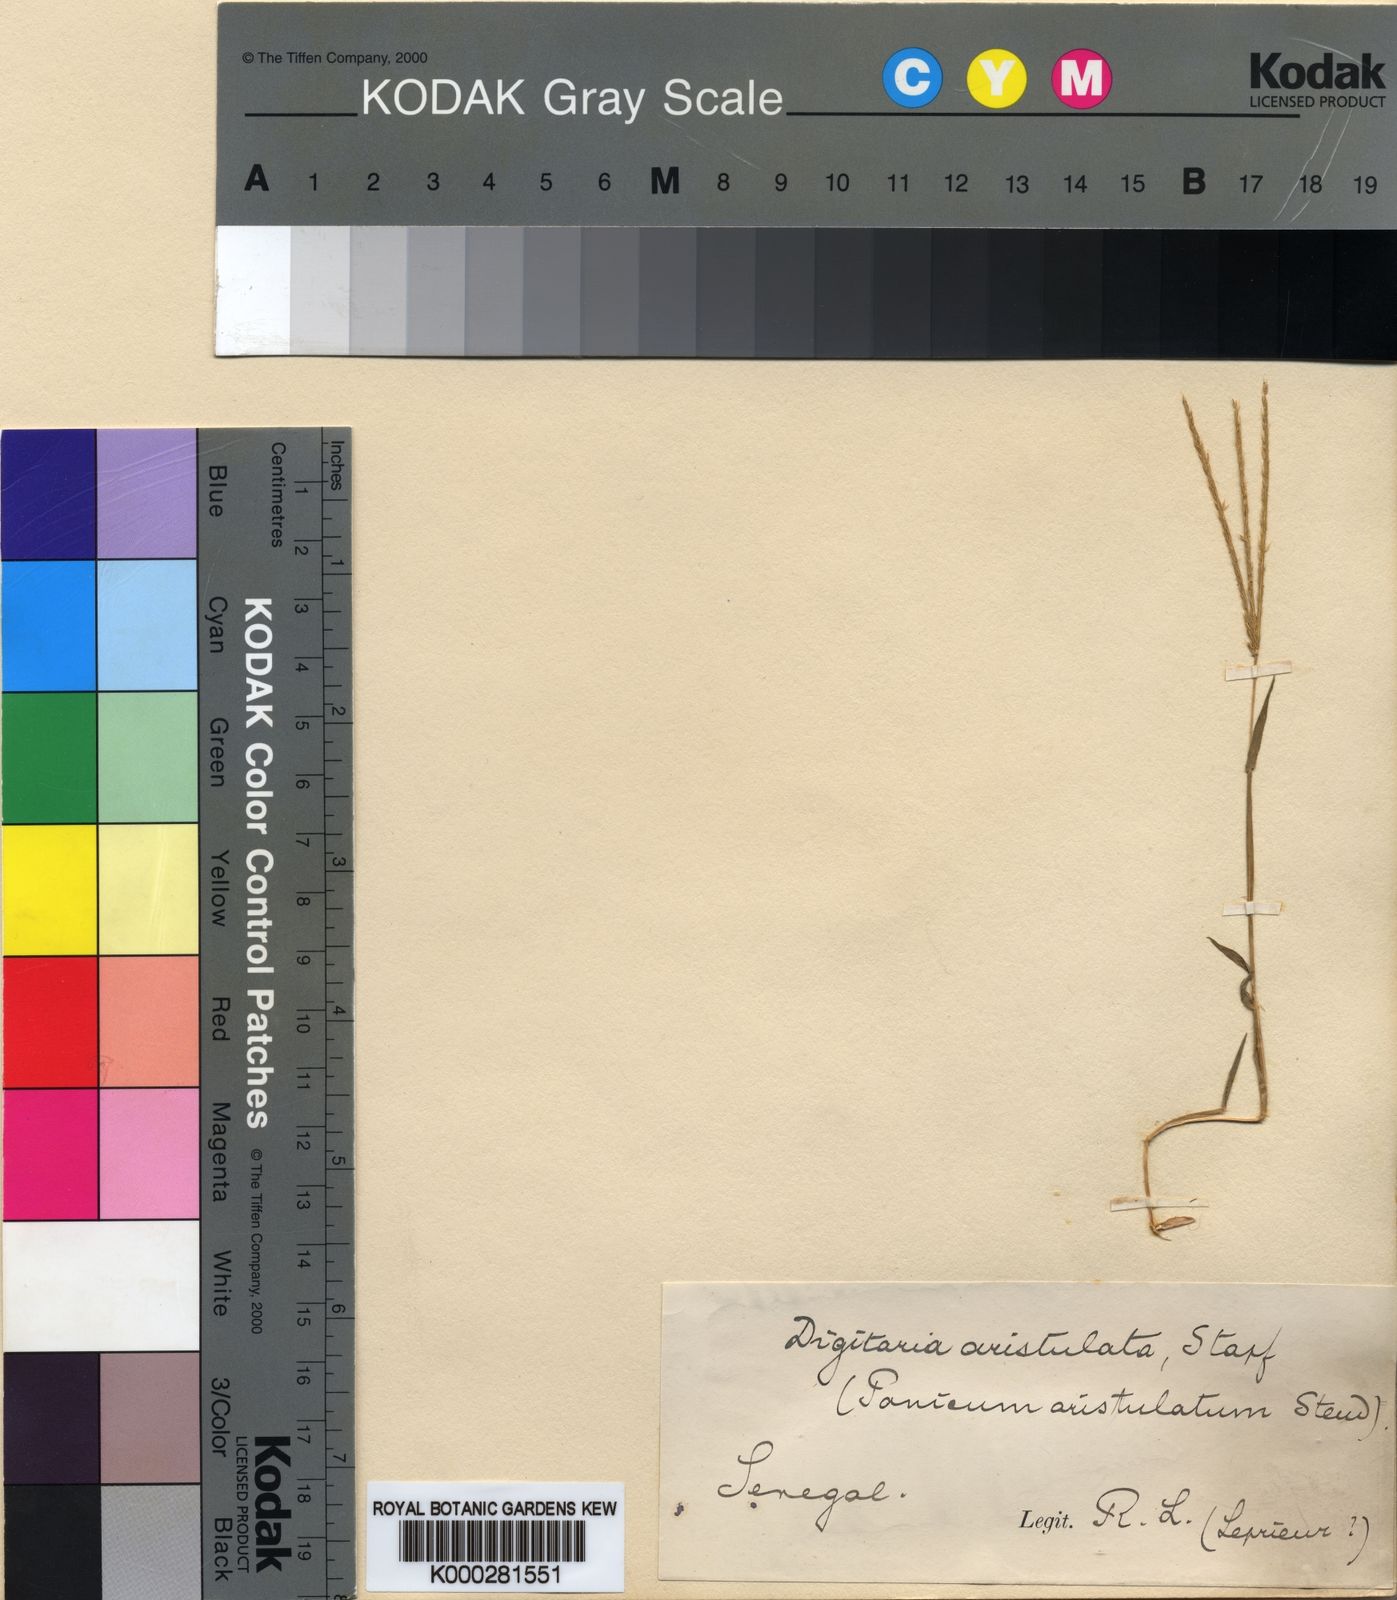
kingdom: Plantae
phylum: Tracheophyta
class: Liliopsida
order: Poales
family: Poaceae
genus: Digitaria
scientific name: Digitaria aristulata
